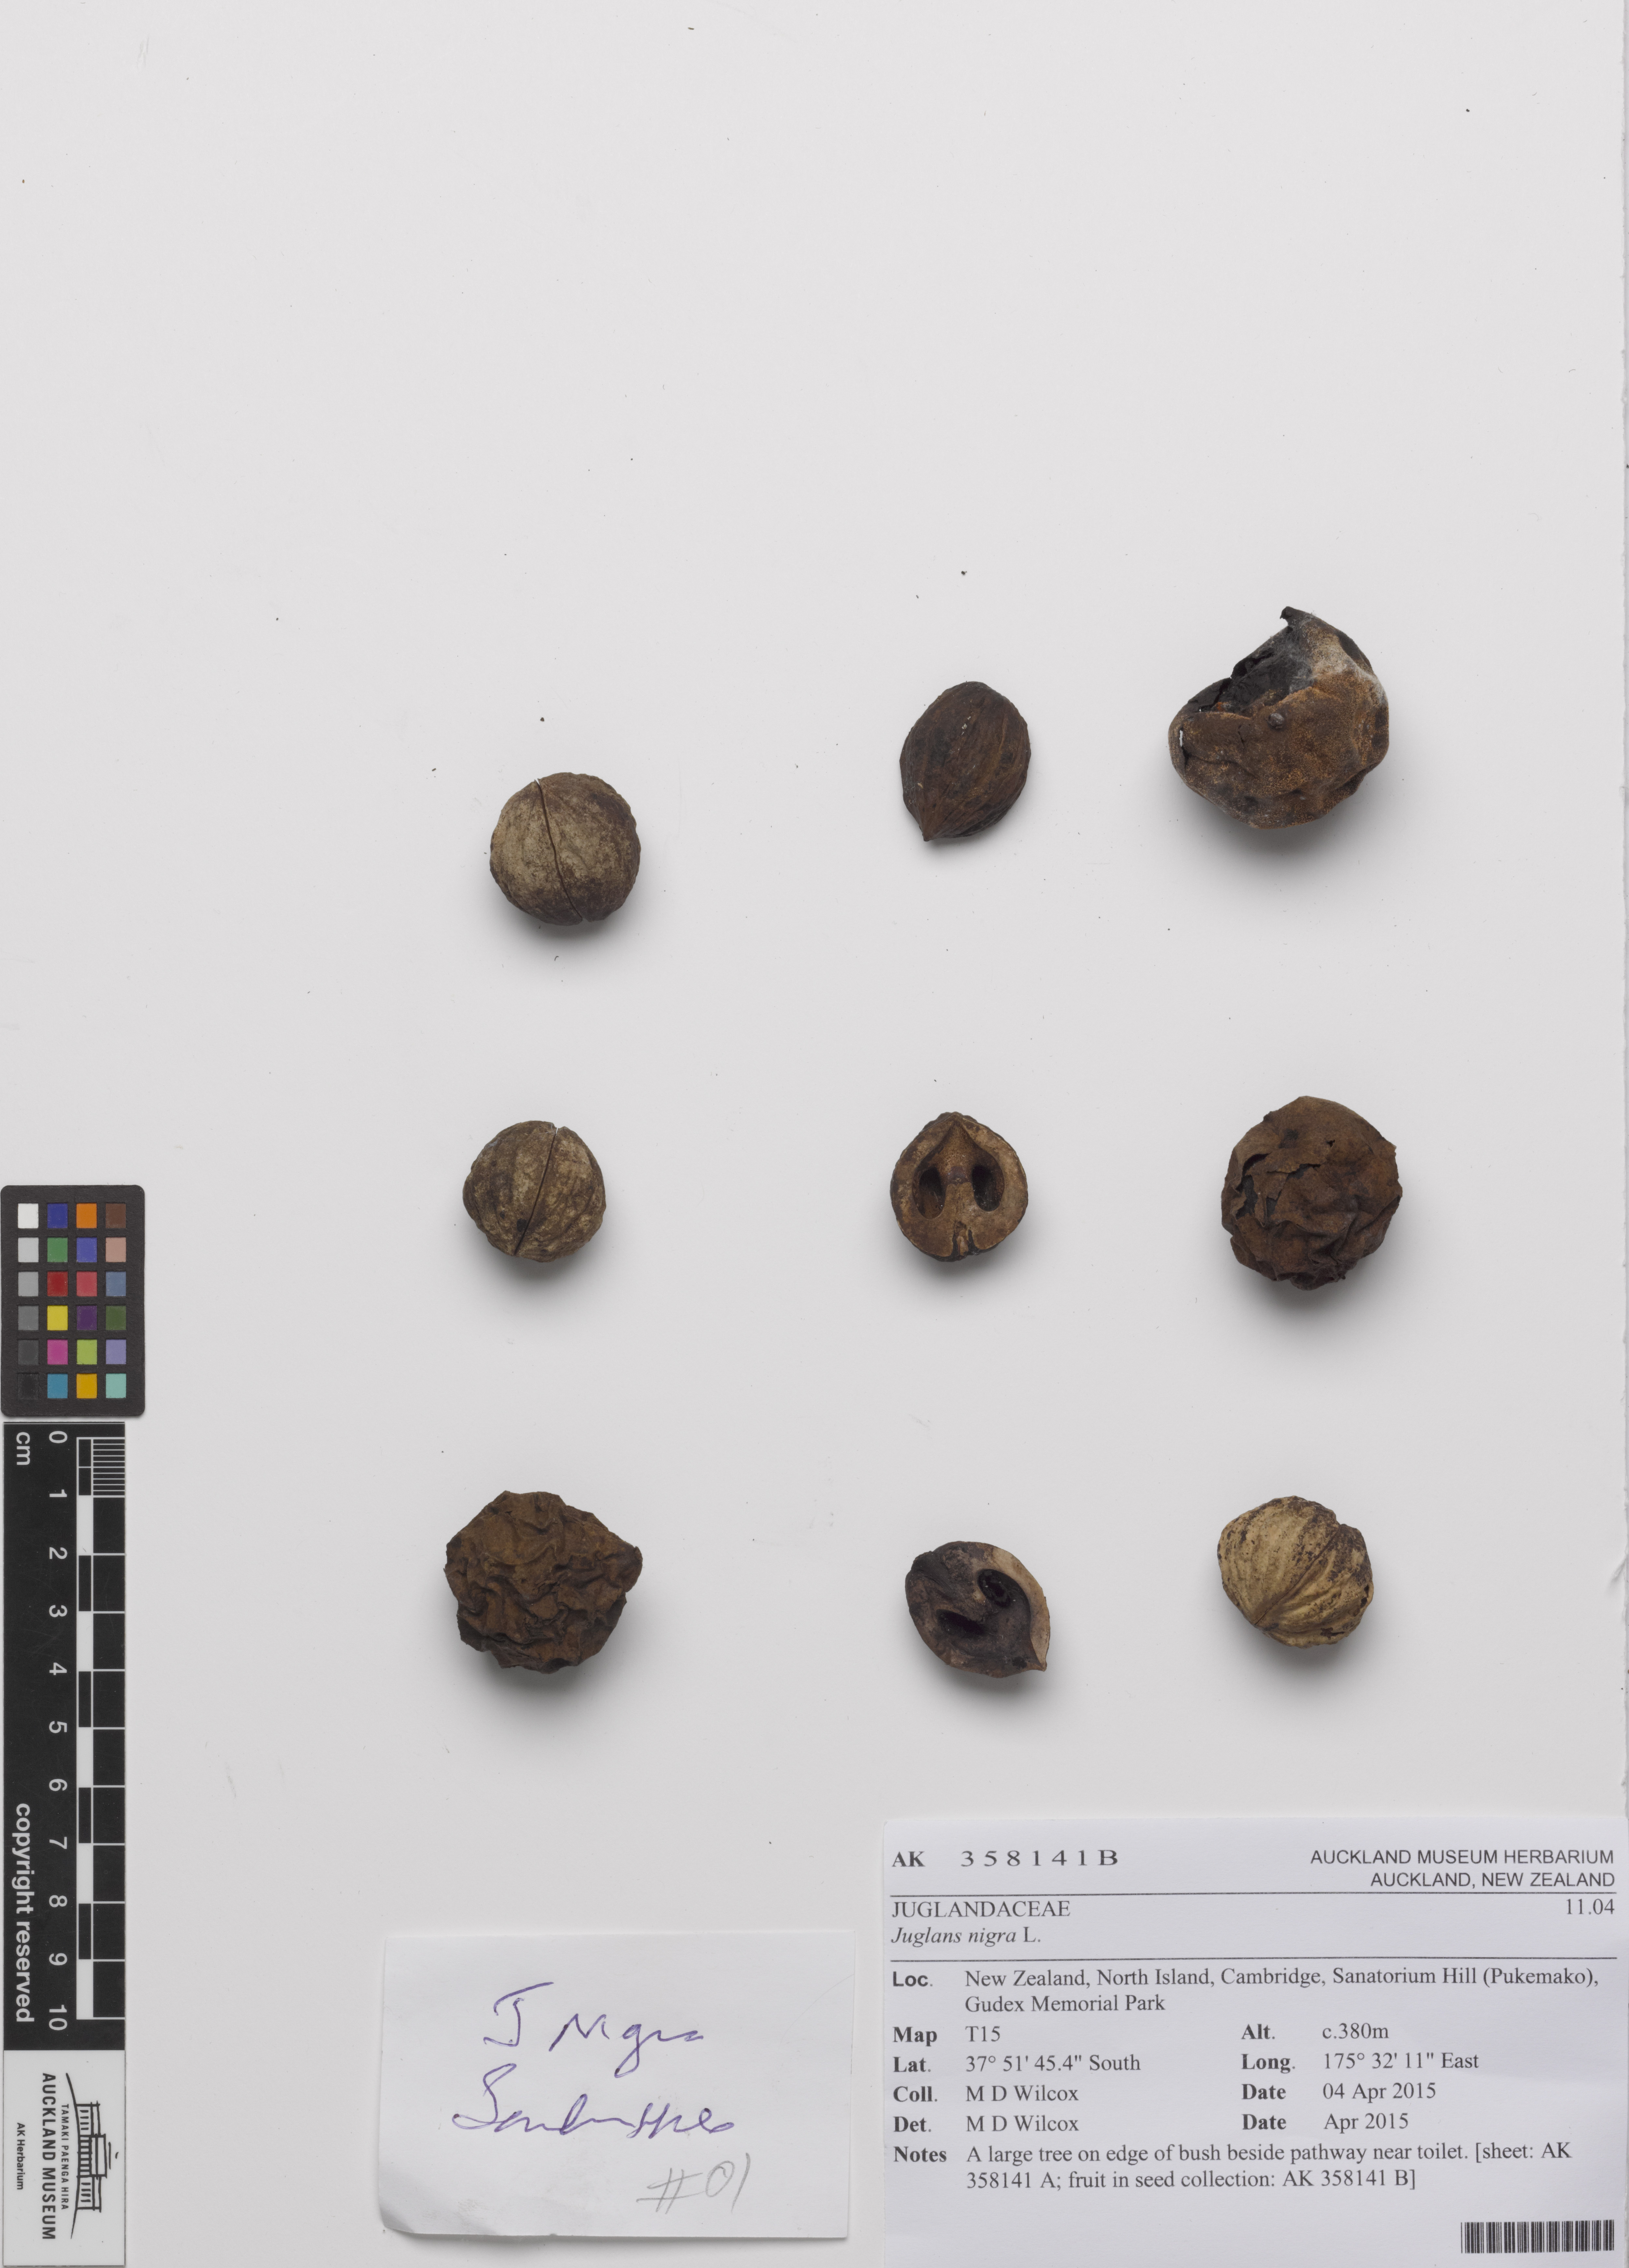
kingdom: Plantae
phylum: Tracheophyta
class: Magnoliopsida
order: Fagales
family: Juglandaceae
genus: Juglans
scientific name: Juglans nigra
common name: Black walnut
